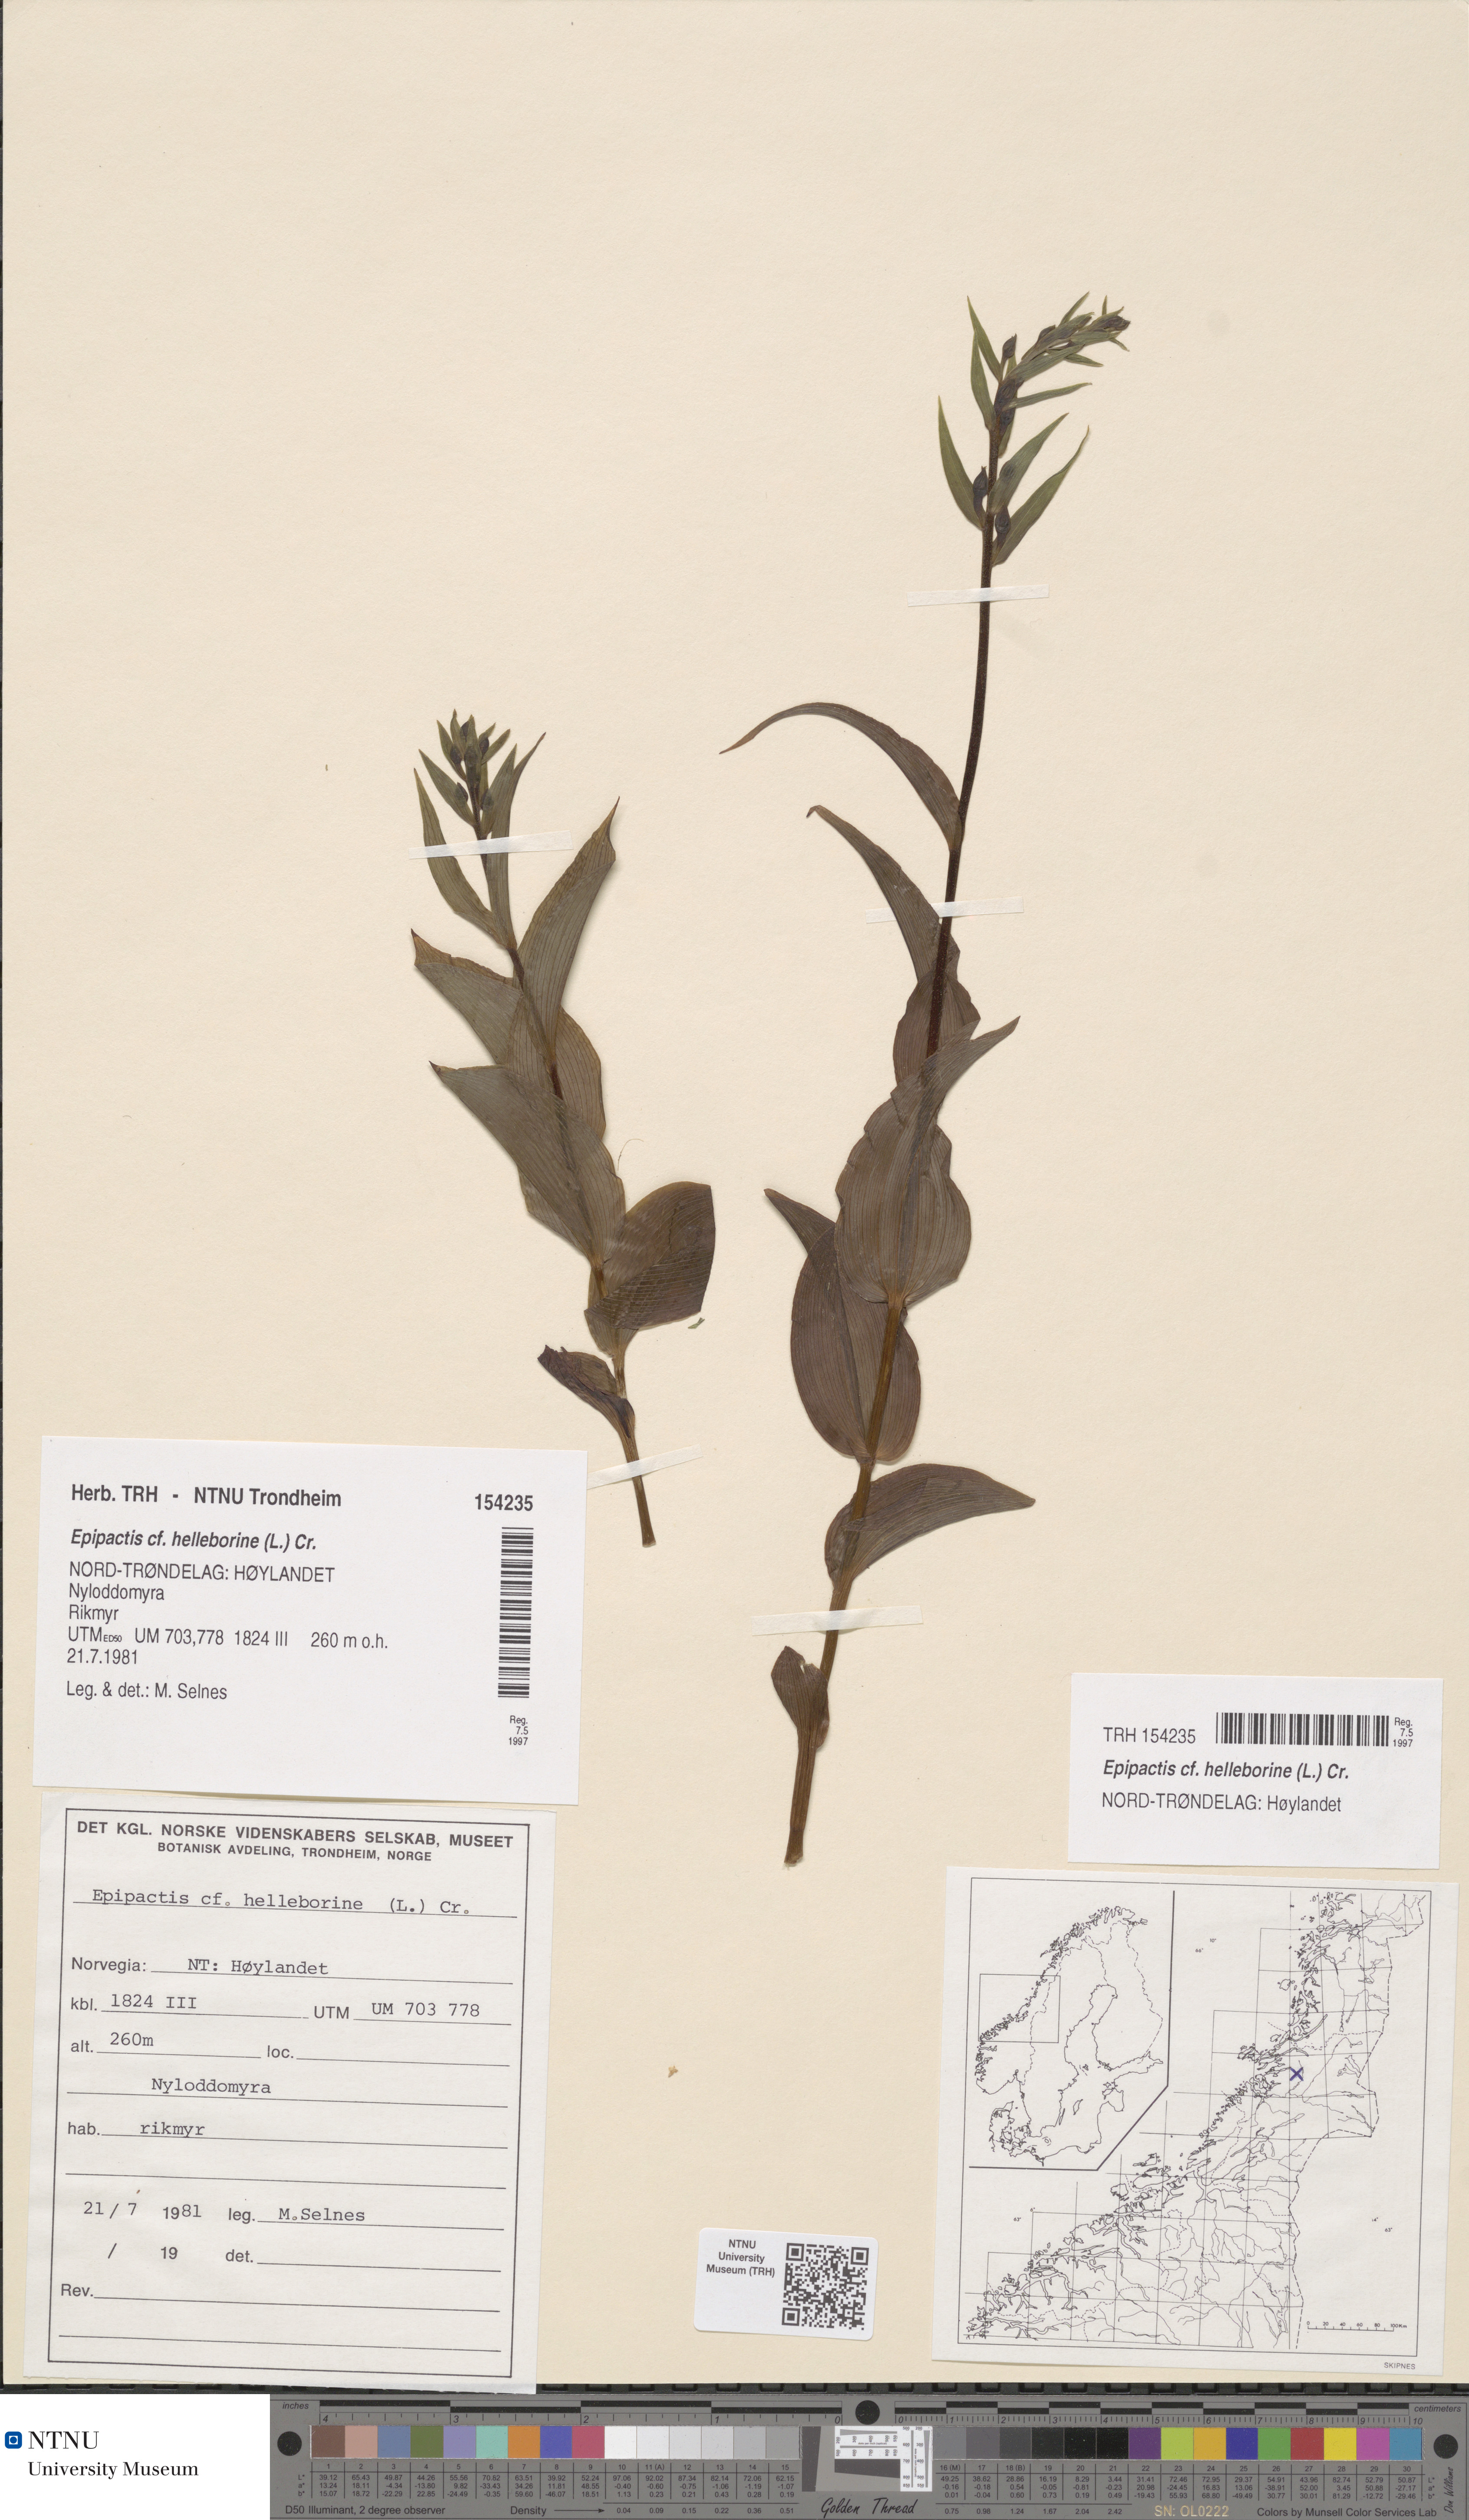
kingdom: Plantae
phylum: Tracheophyta
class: Liliopsida
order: Asparagales
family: Orchidaceae
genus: Epipactis
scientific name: Epipactis helleborine
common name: Broad-leaved helleborine
